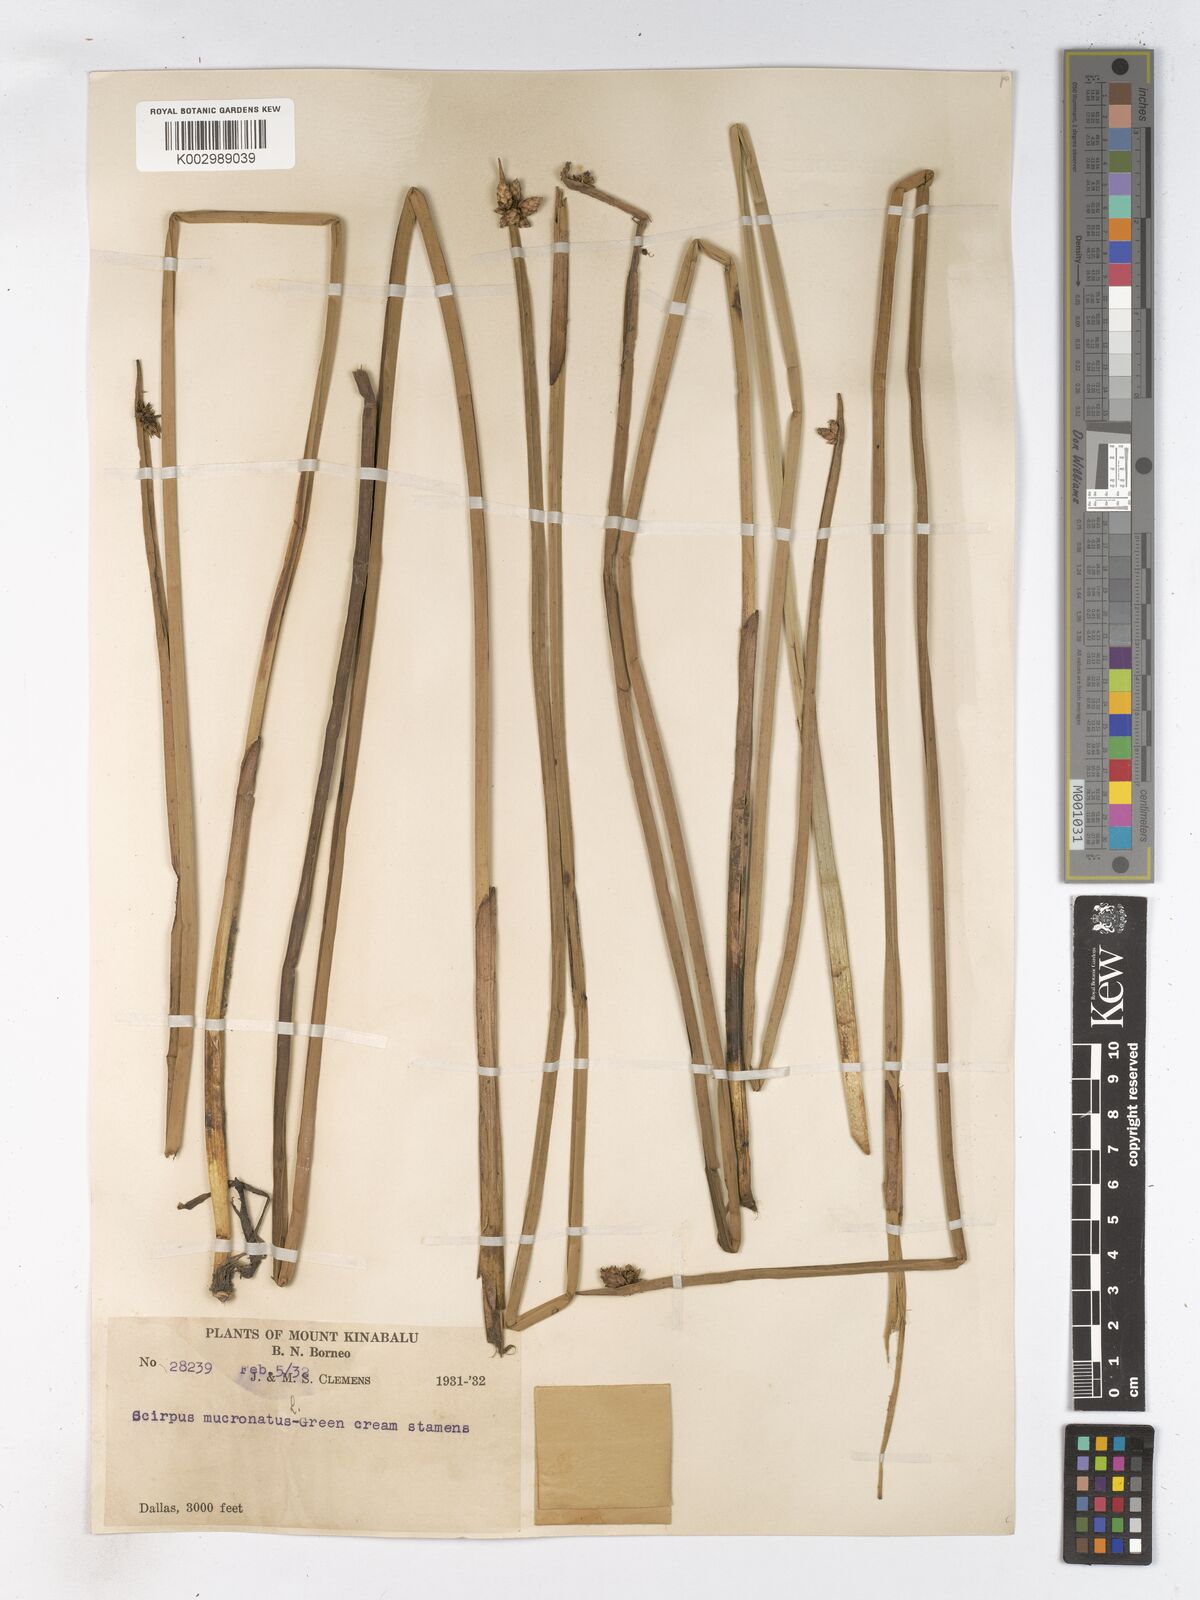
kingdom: Plantae
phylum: Tracheophyta
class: Liliopsida
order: Poales
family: Cyperaceae
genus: Schoenoplectiella
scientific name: Schoenoplectiella mucronata
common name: Bog bulrush
